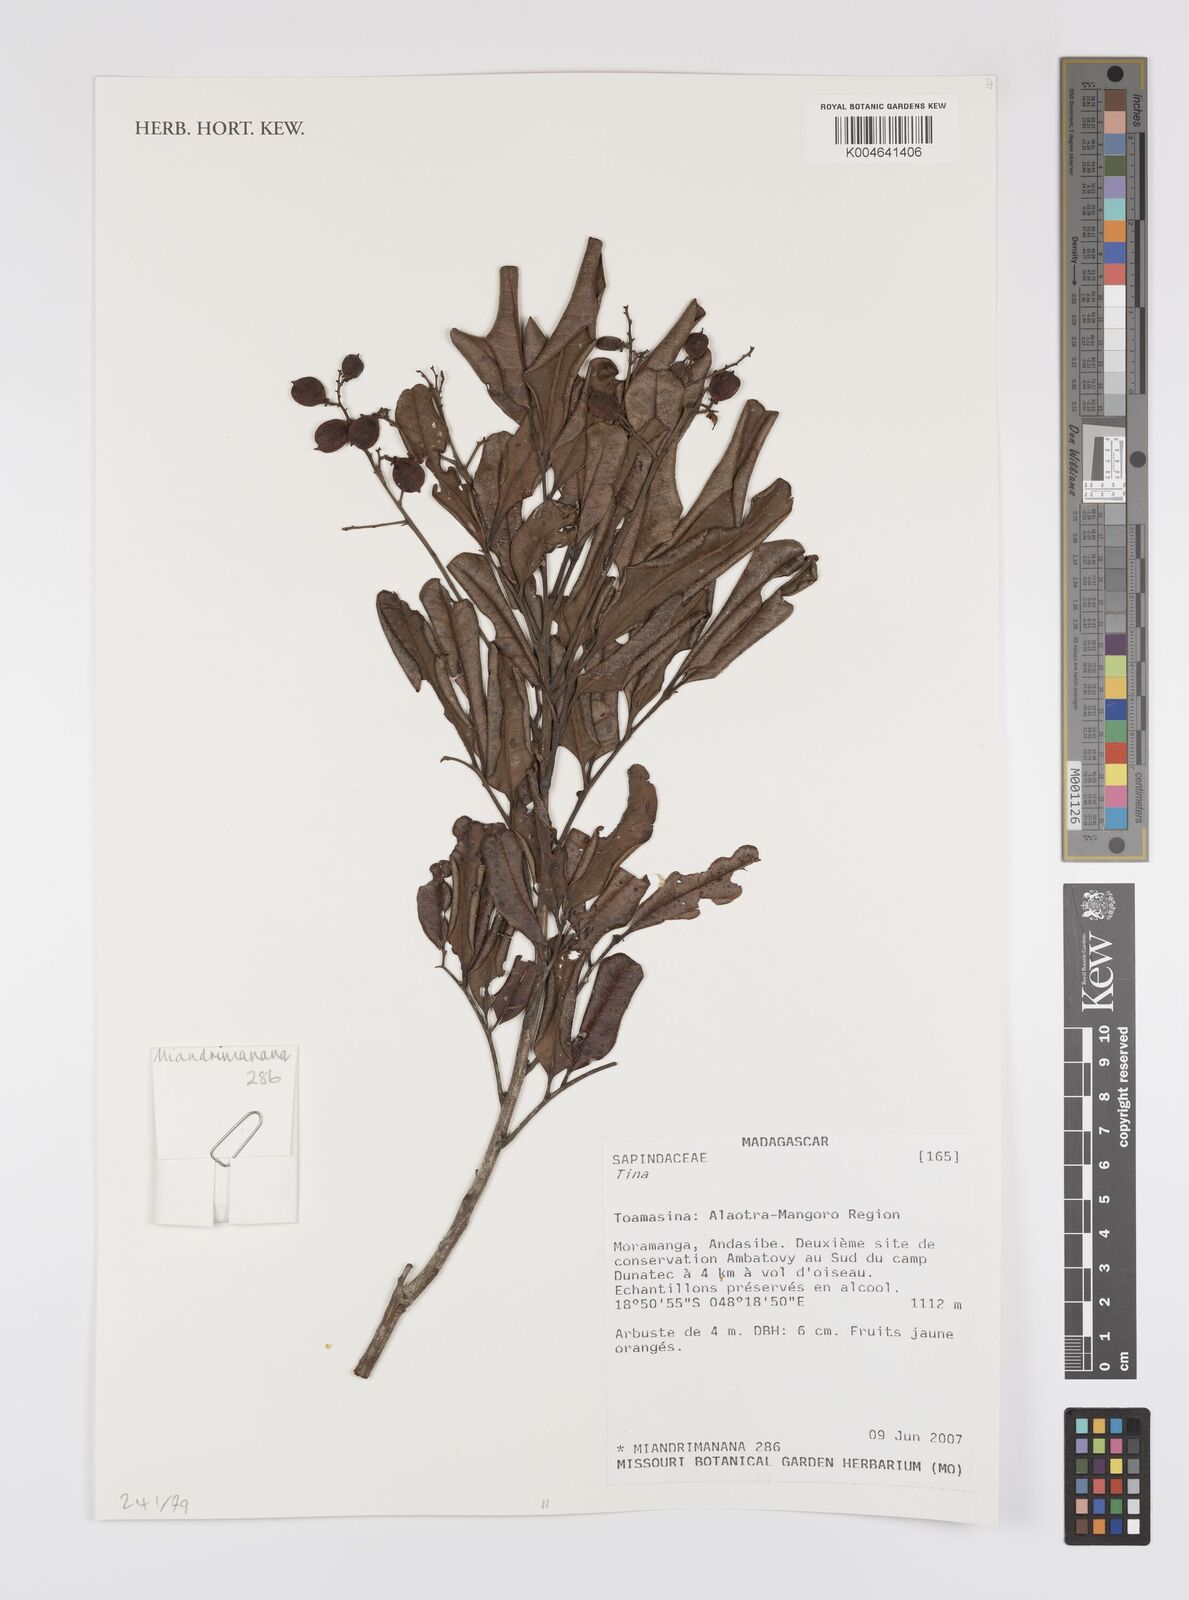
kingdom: Plantae
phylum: Tracheophyta
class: Magnoliopsida
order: Sapindales
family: Sapindaceae
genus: Tina
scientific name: Tina
